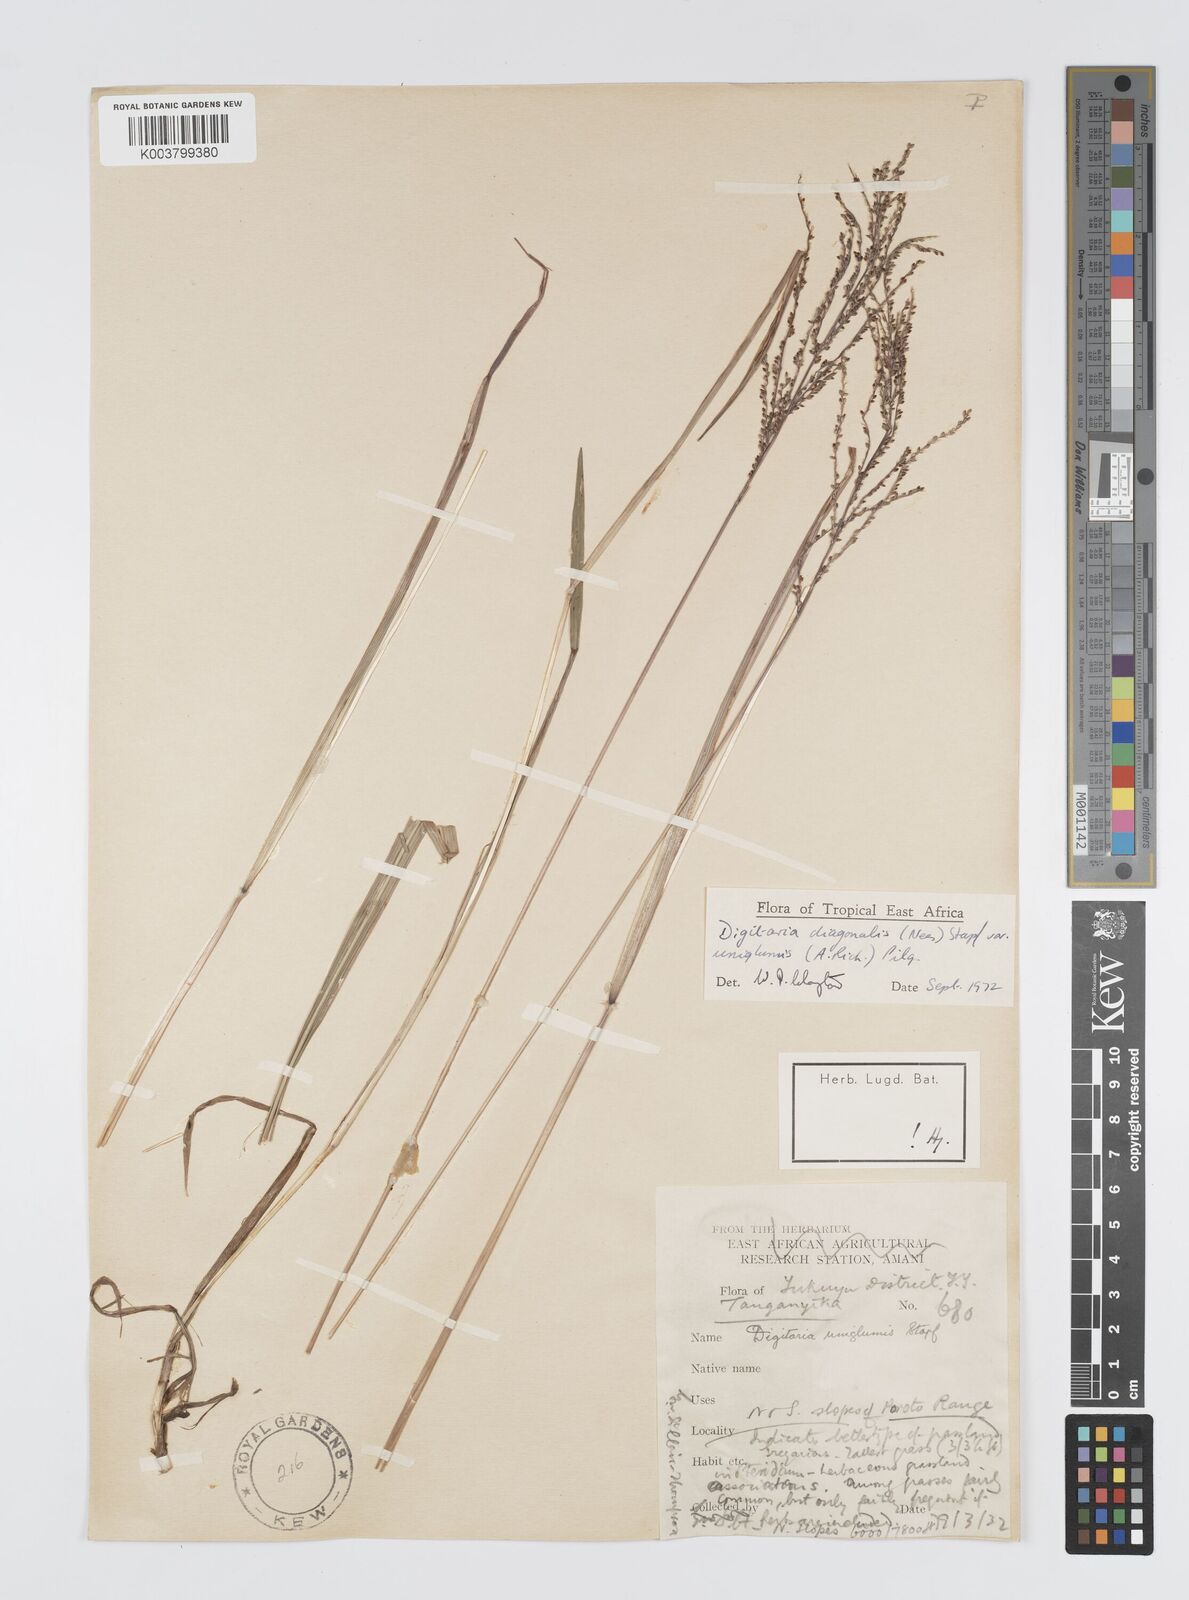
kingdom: Plantae
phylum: Tracheophyta
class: Liliopsida
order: Poales
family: Poaceae
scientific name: Poaceae
